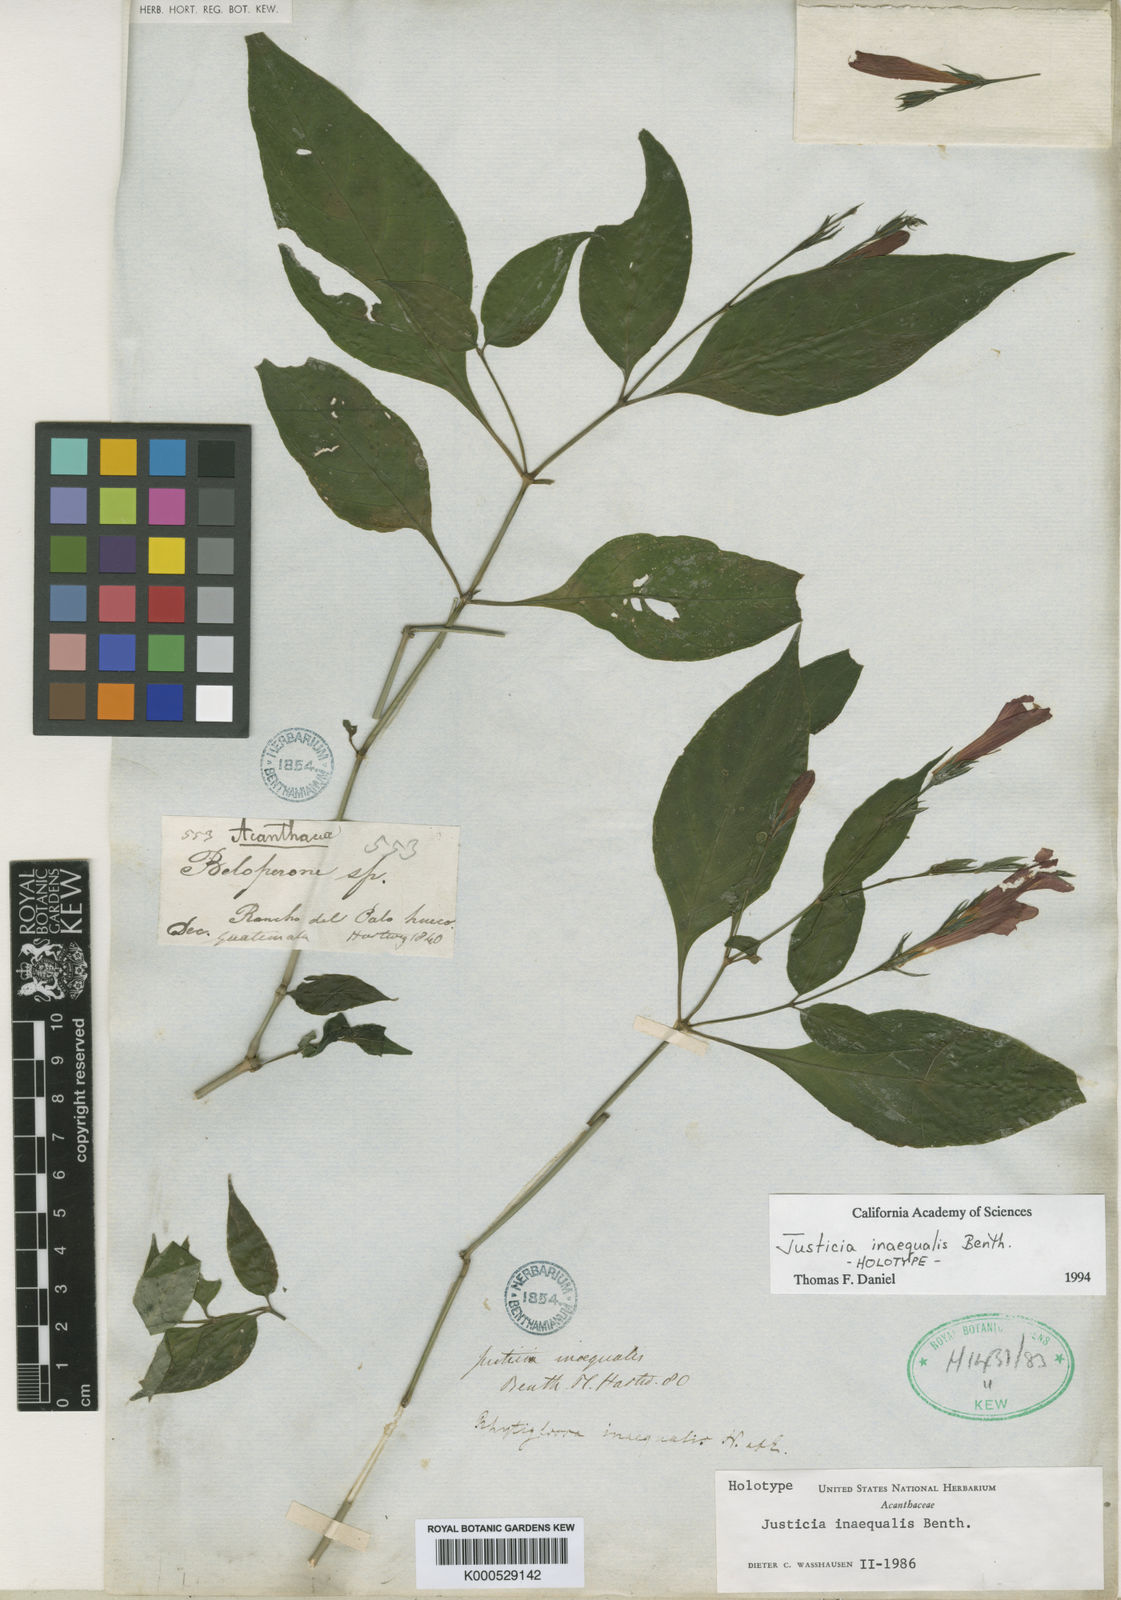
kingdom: Plantae
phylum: Tracheophyta
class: Magnoliopsida
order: Lamiales
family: Acanthaceae
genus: Dianthera
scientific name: Dianthera inaequalis
